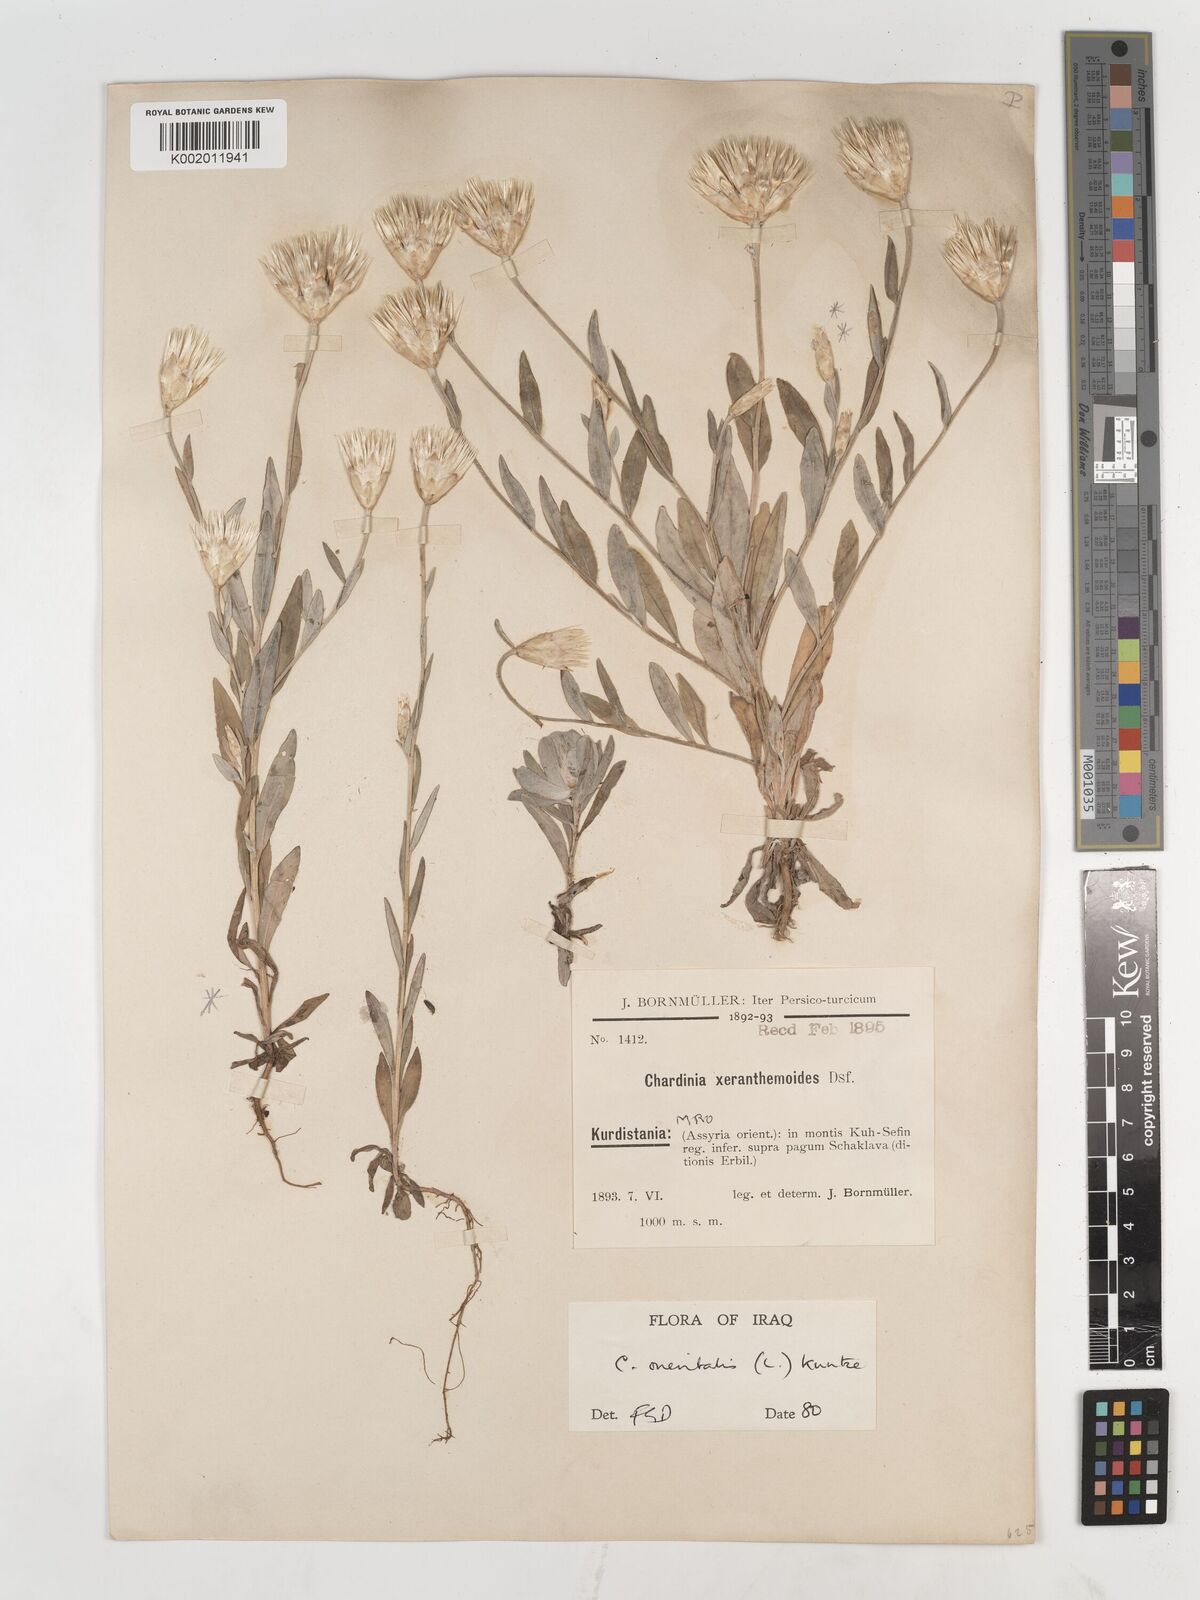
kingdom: Plantae
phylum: Tracheophyta
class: Magnoliopsida
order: Asterales
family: Asteraceae
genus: Chardinia
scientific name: Chardinia orientalis
